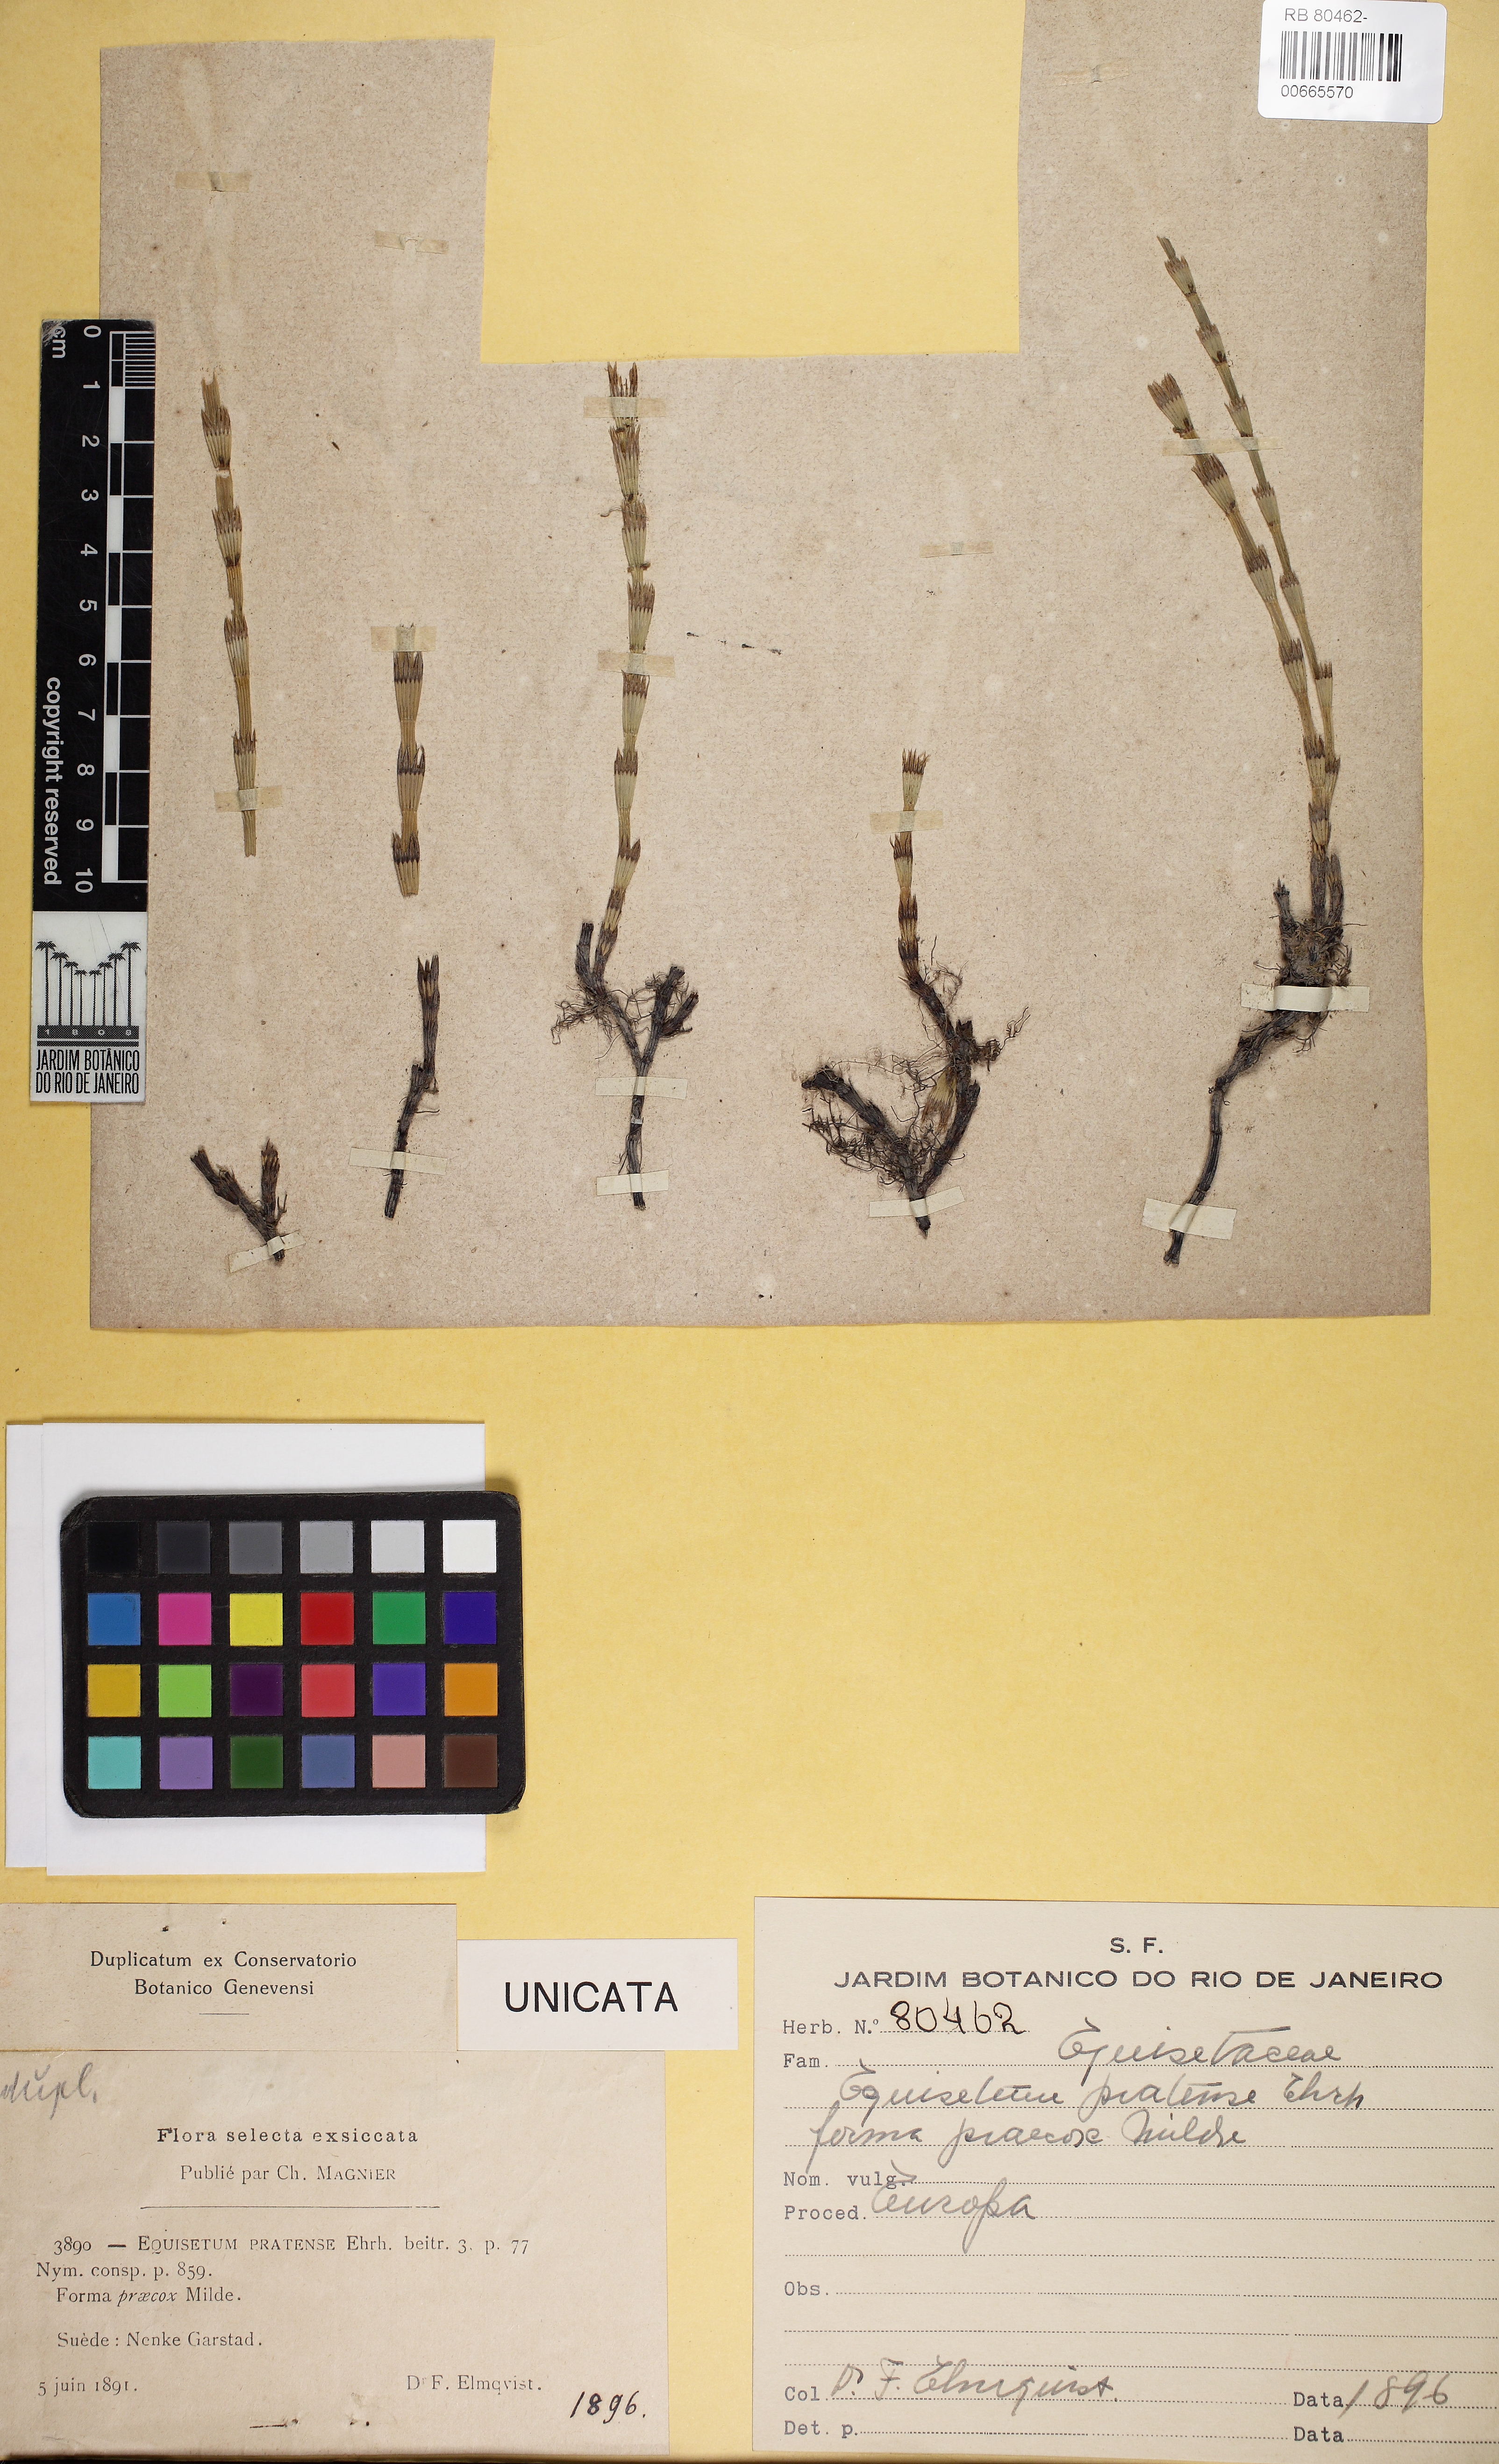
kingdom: Plantae
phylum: Tracheophyta
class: Polypodiopsida
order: Equisetales
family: Equisetaceae
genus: Equisetum
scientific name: Equisetum pratense
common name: Meadow horsetail
